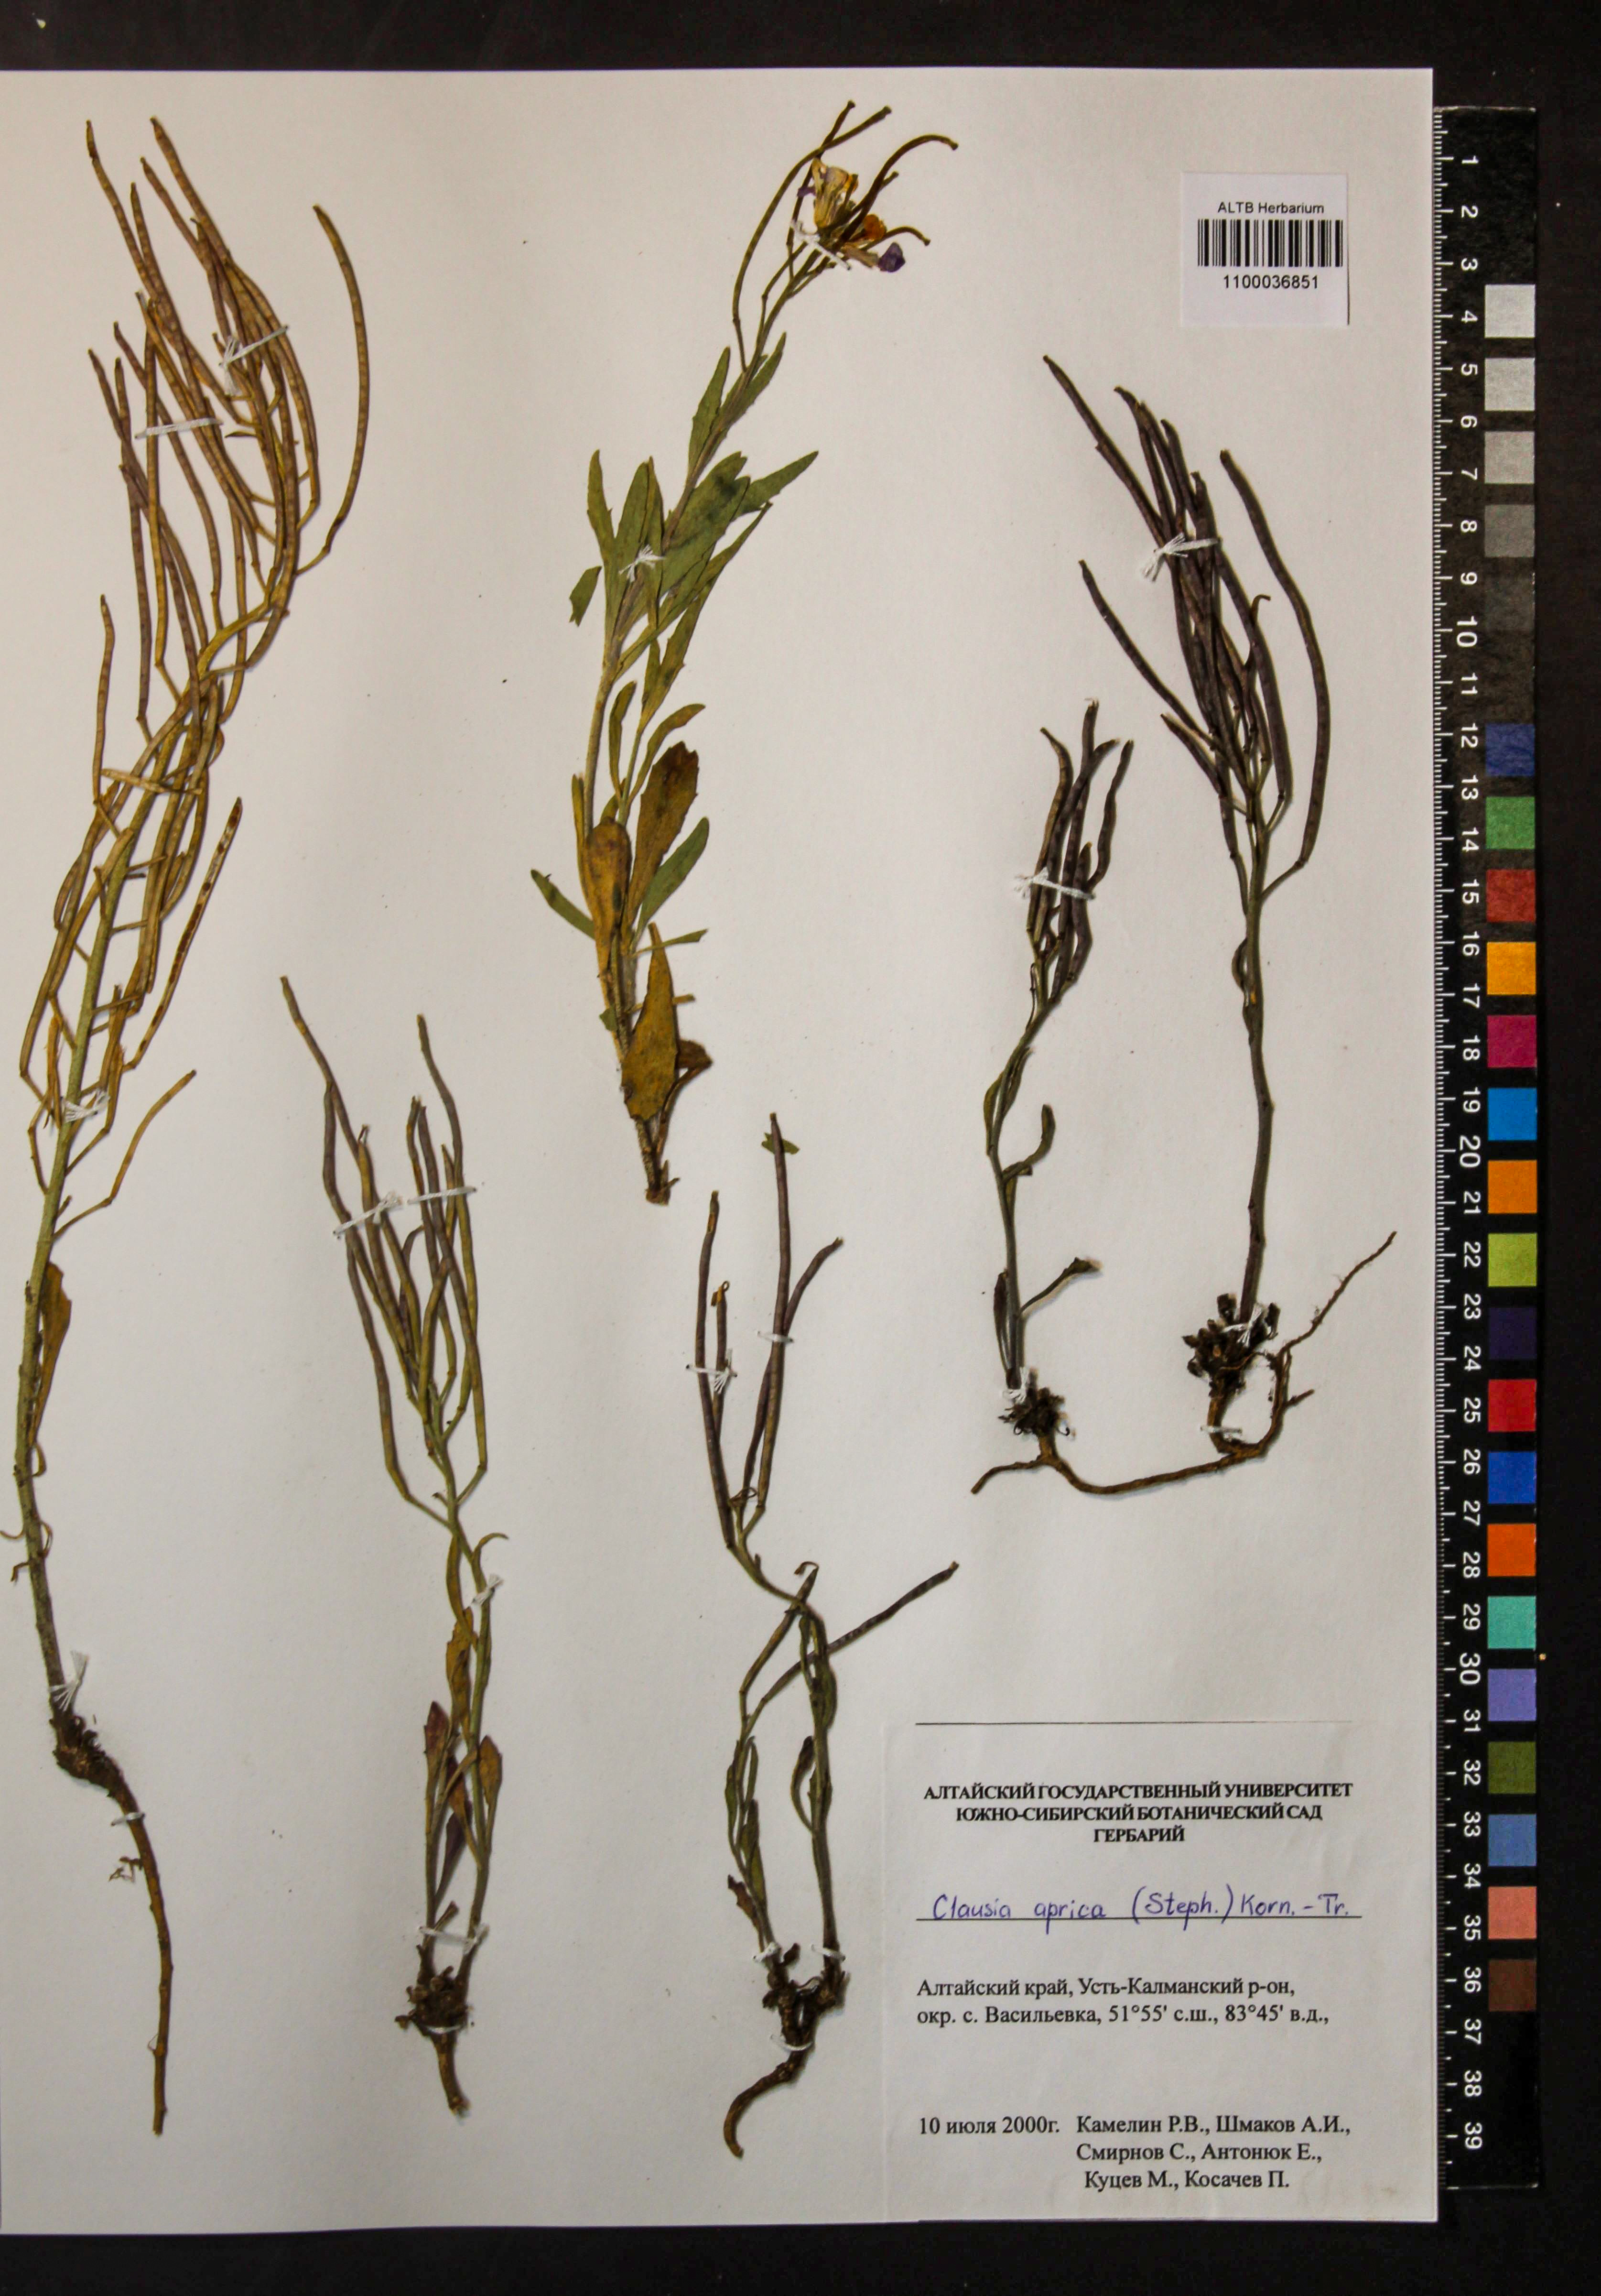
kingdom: Plantae
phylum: Tracheophyta
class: Magnoliopsida
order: Brassicales
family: Brassicaceae
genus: Clausia
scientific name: Clausia aprica
